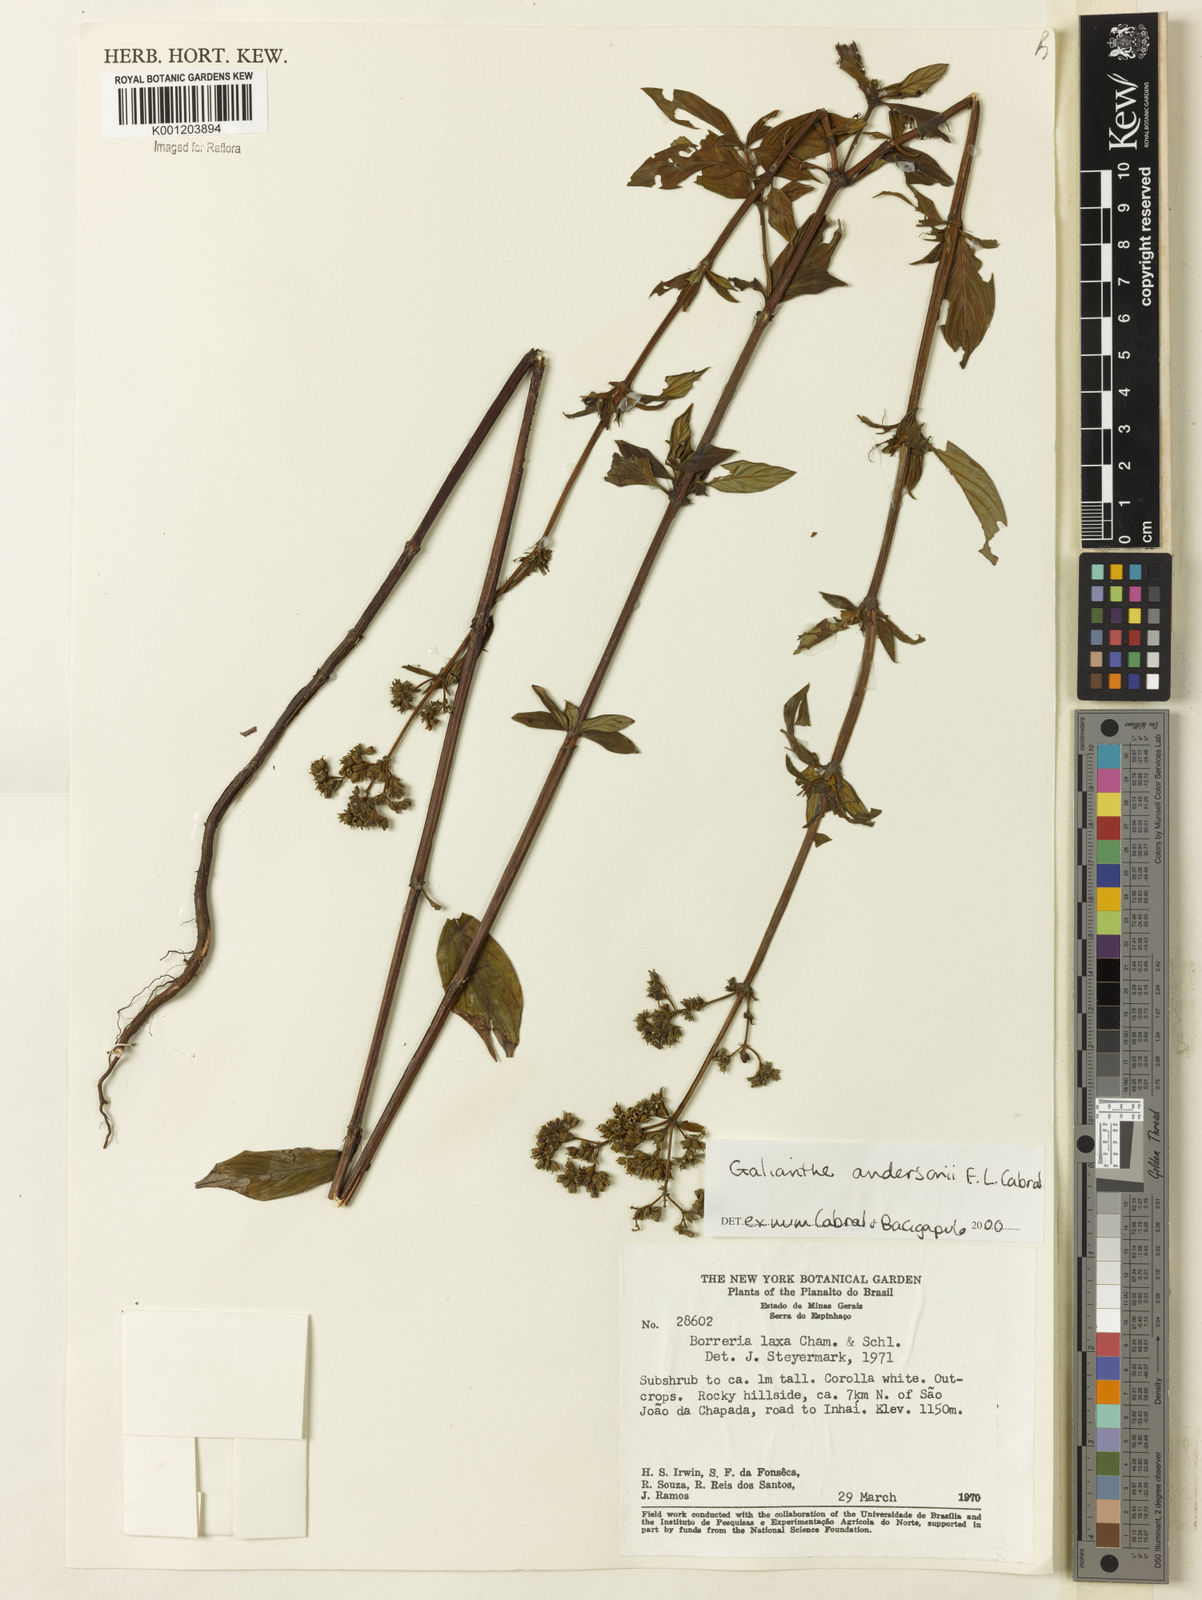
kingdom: Plantae
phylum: Tracheophyta
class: Magnoliopsida
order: Gentianales
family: Rubiaceae
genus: Galianthe
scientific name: Galianthe andersonii
